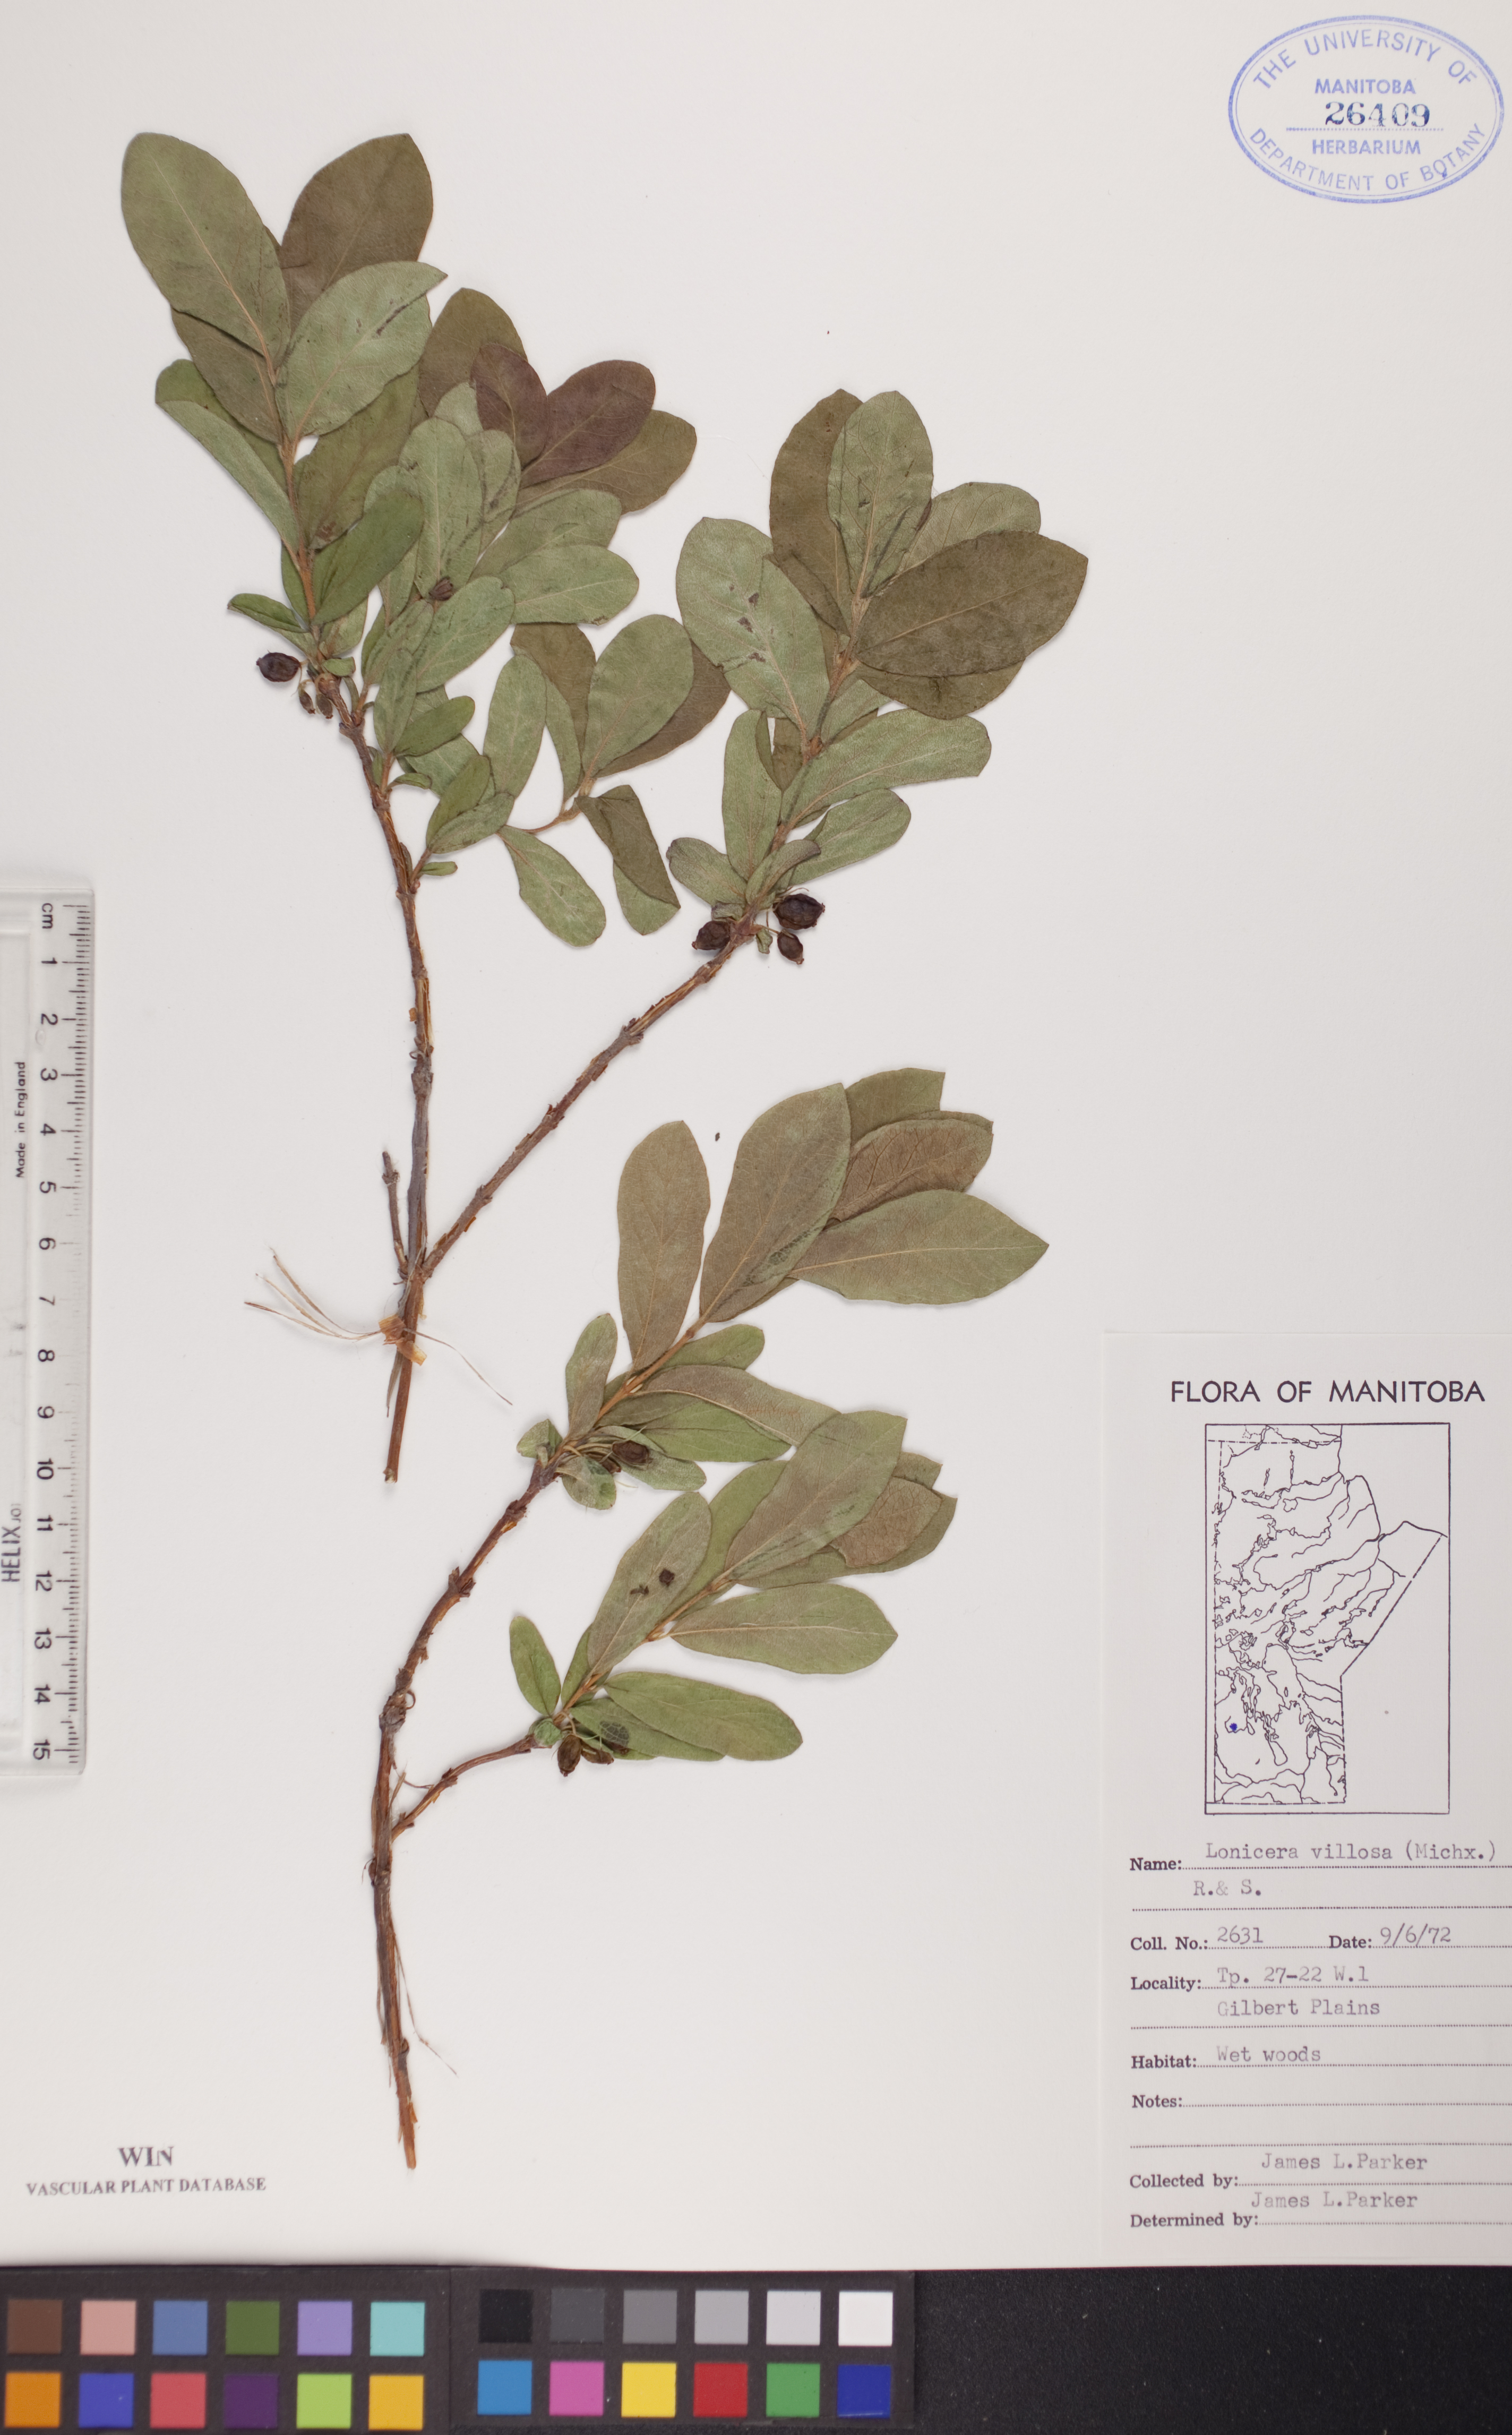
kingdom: Plantae
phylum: Tracheophyta
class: Magnoliopsida
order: Dipsacales
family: Caprifoliaceae
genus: Lonicera
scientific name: Lonicera villosa
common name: Mountain fly-honeysuckle
